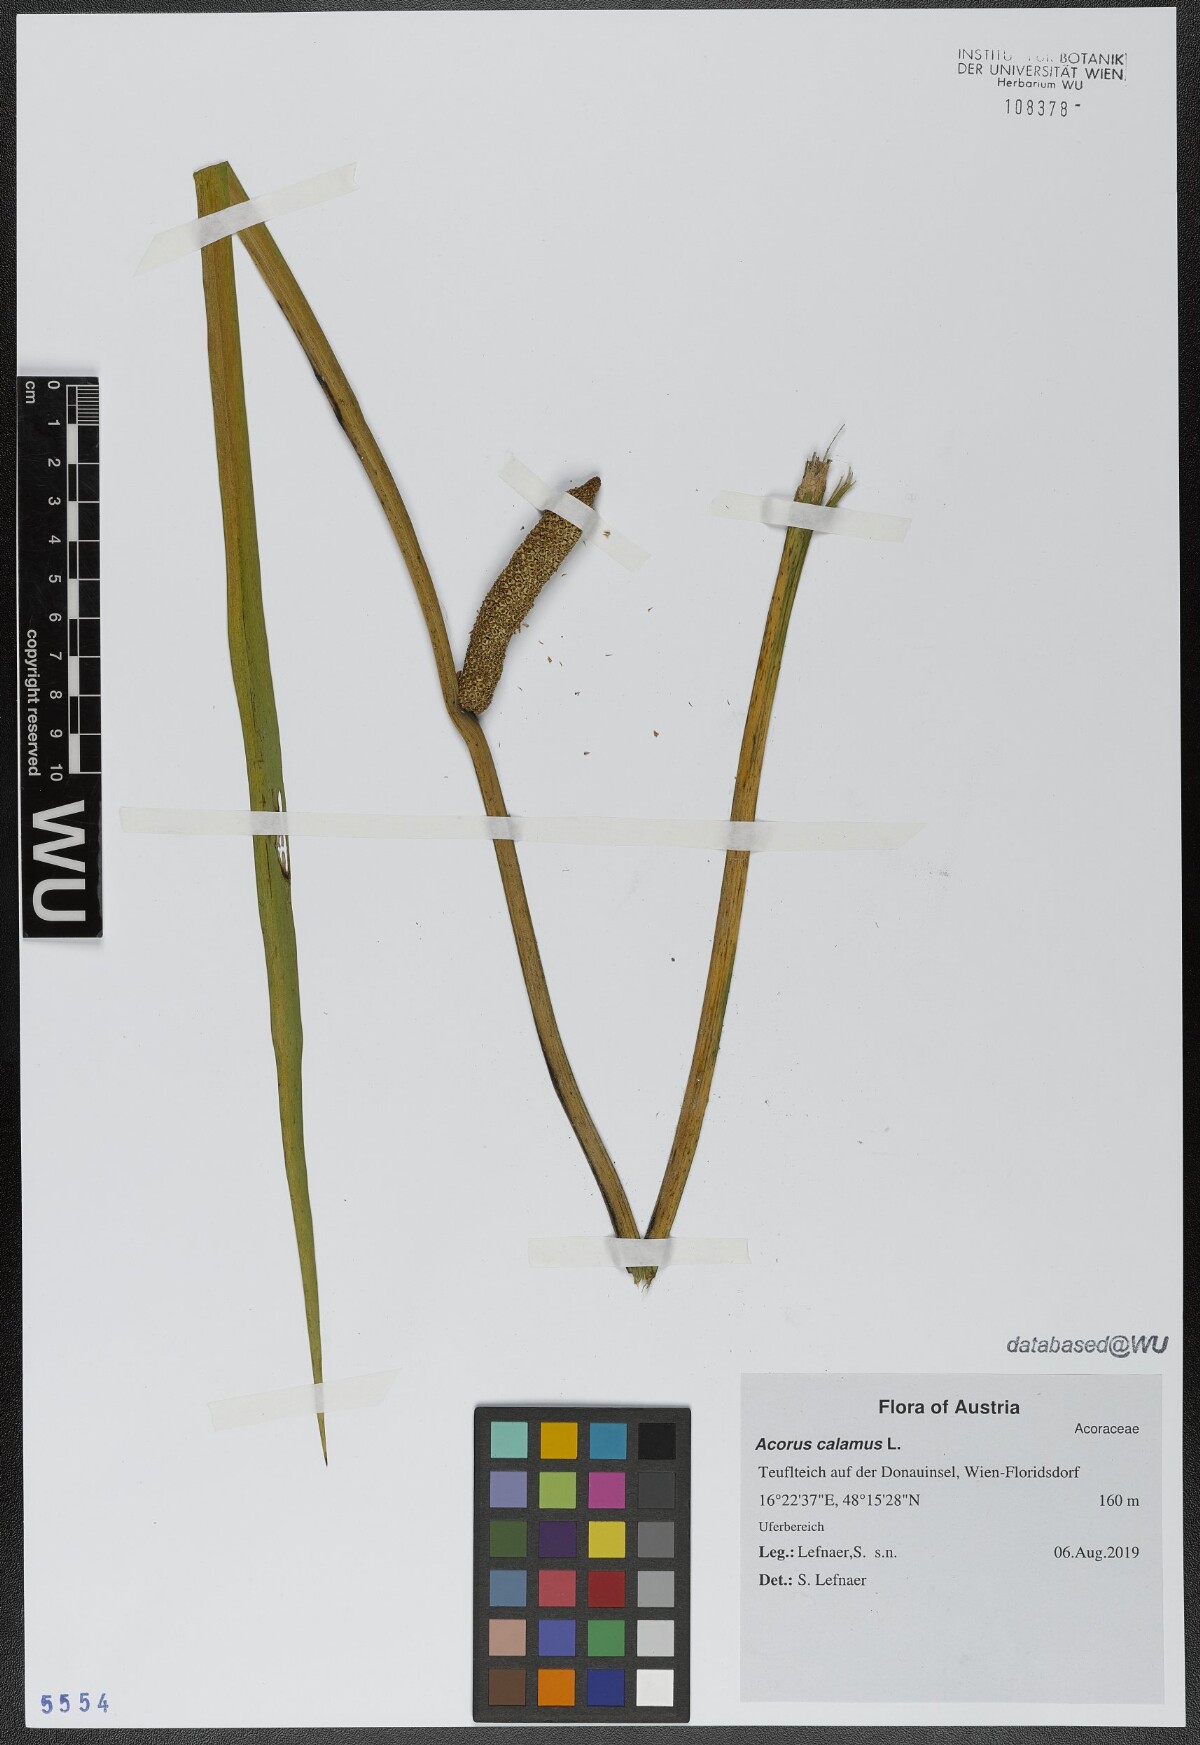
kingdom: Plantae
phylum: Tracheophyta
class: Liliopsida
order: Acorales
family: Acoraceae
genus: Acorus
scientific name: Acorus calamus
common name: Sweet-flag
